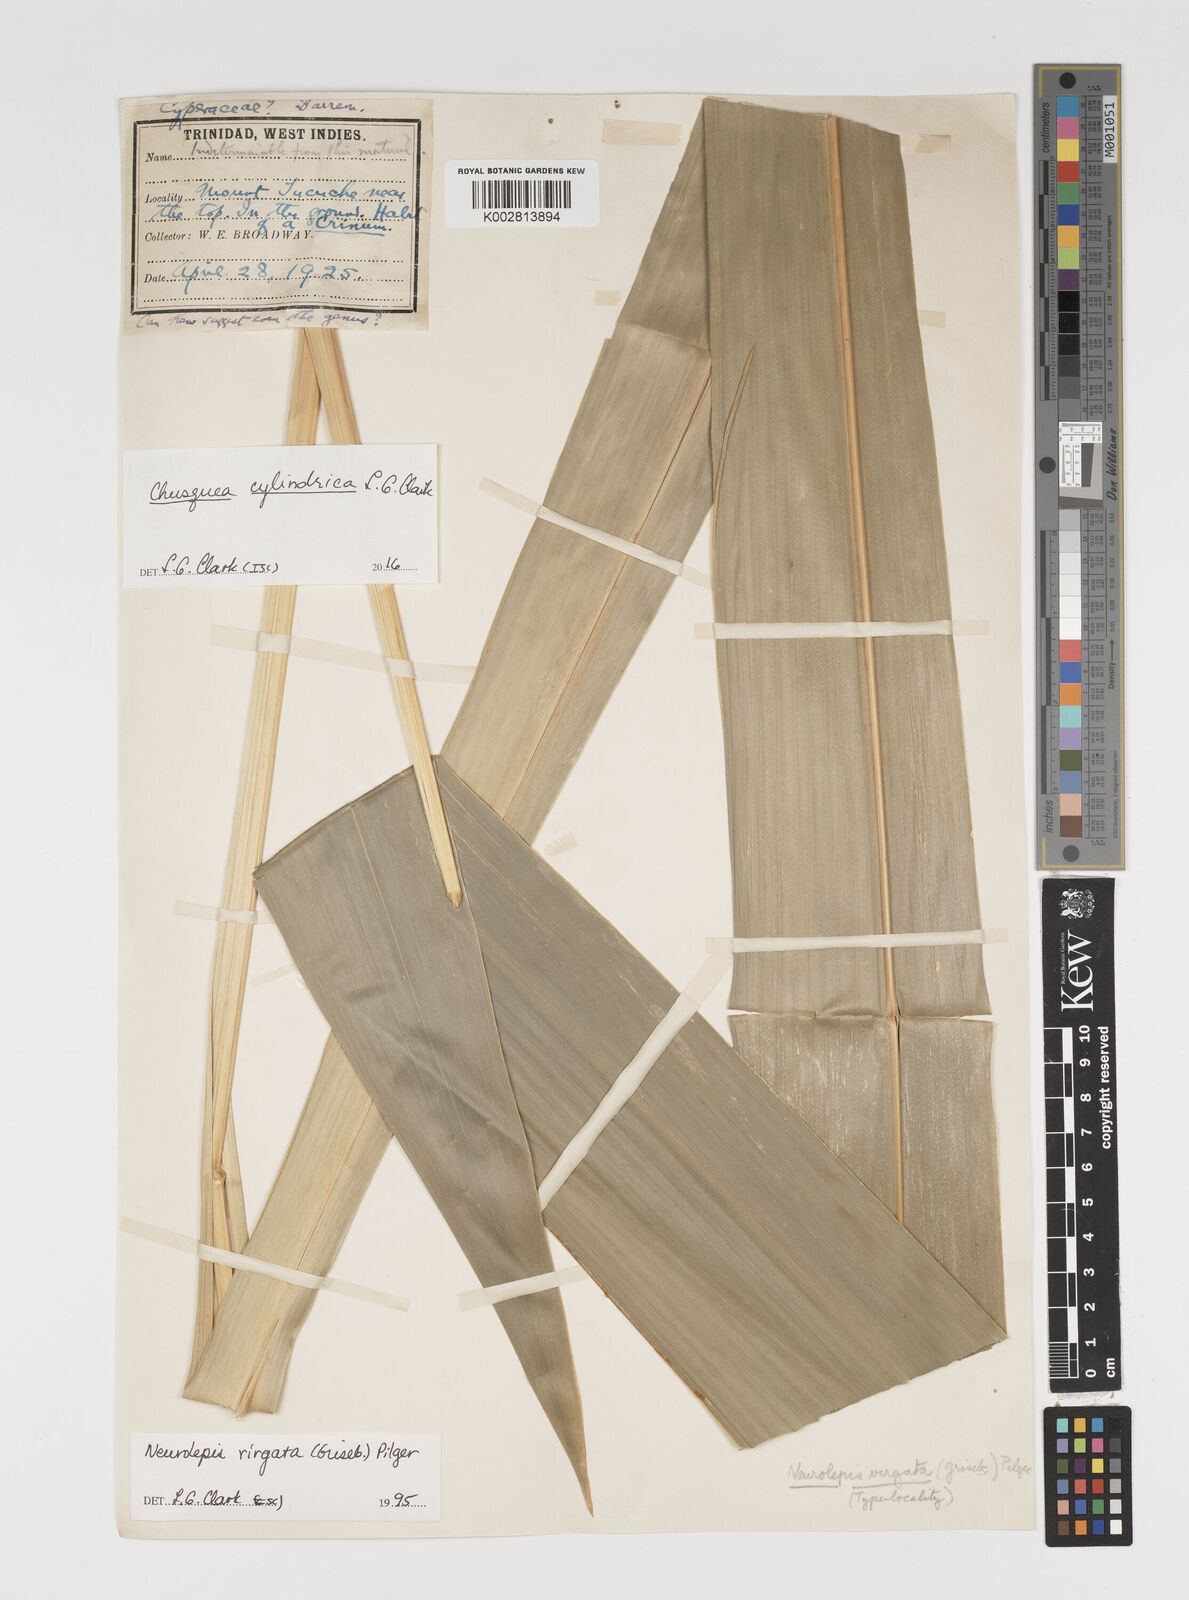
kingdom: Plantae
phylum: Tracheophyta
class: Liliopsida
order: Poales
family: Poaceae
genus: Chusquea
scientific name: Chusquea cylindrica
